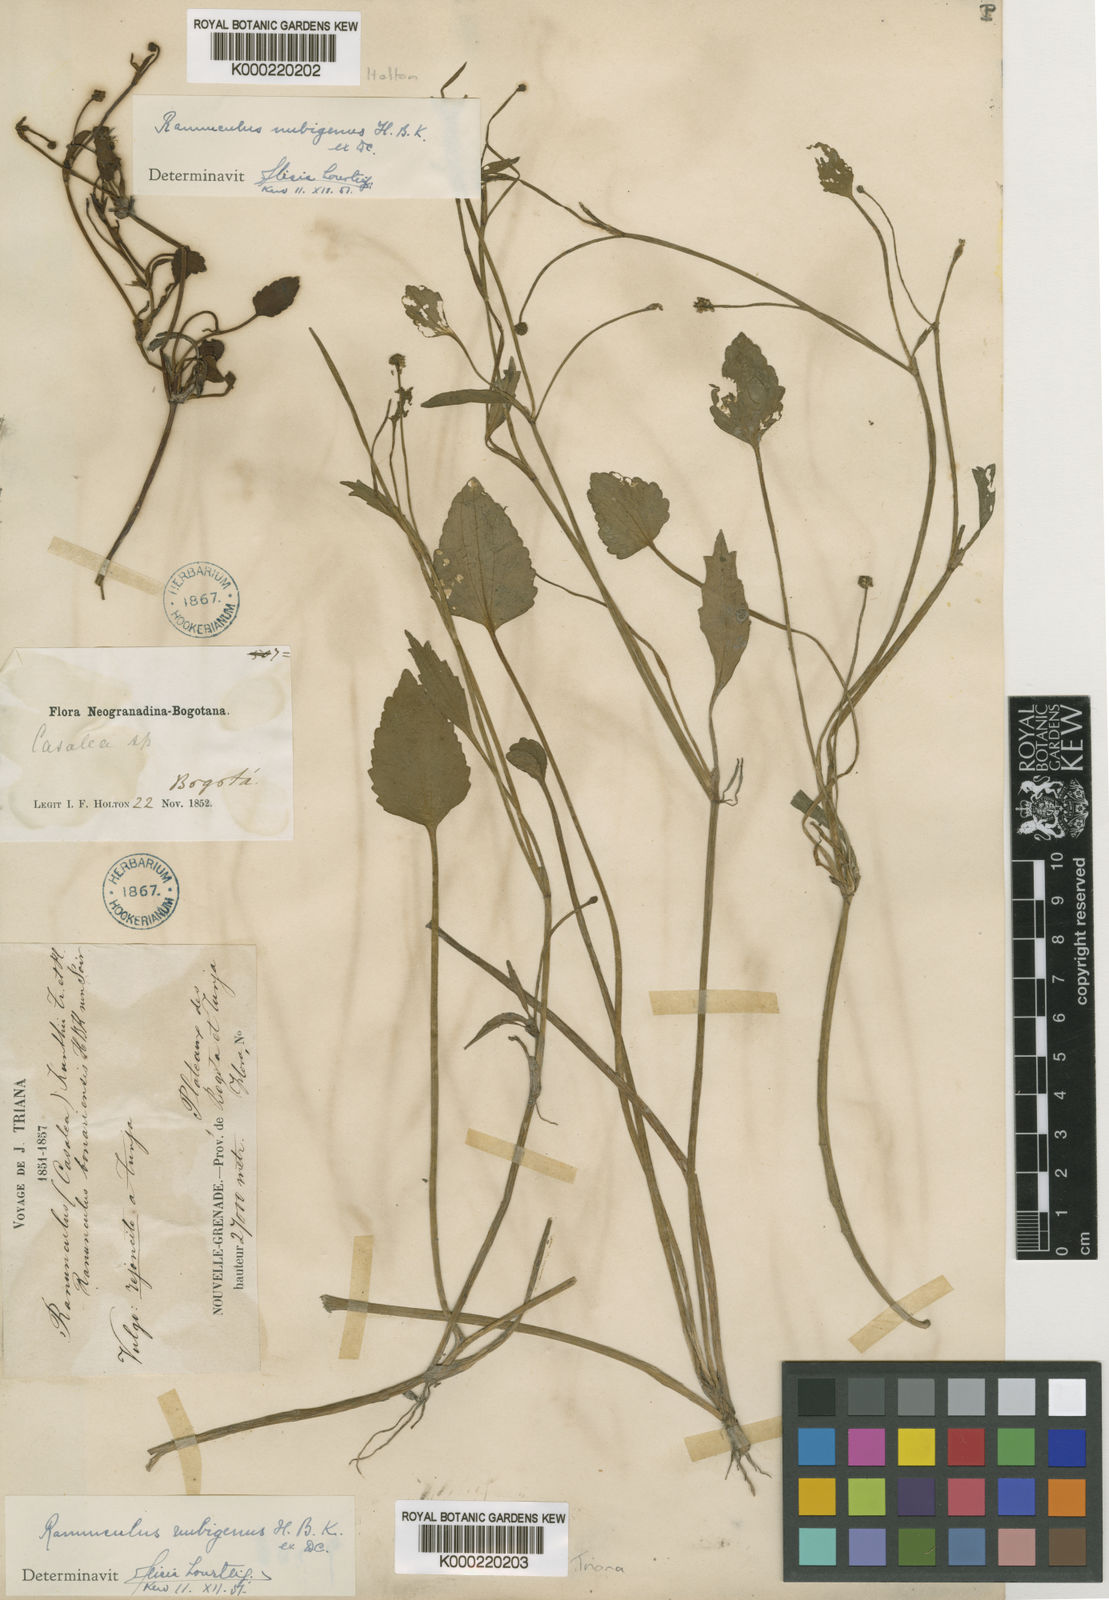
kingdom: Plantae
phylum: Tracheophyta
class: Magnoliopsida
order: Ranunculales
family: Ranunculaceae
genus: Ranunculus
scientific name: Ranunculus nubigenus
